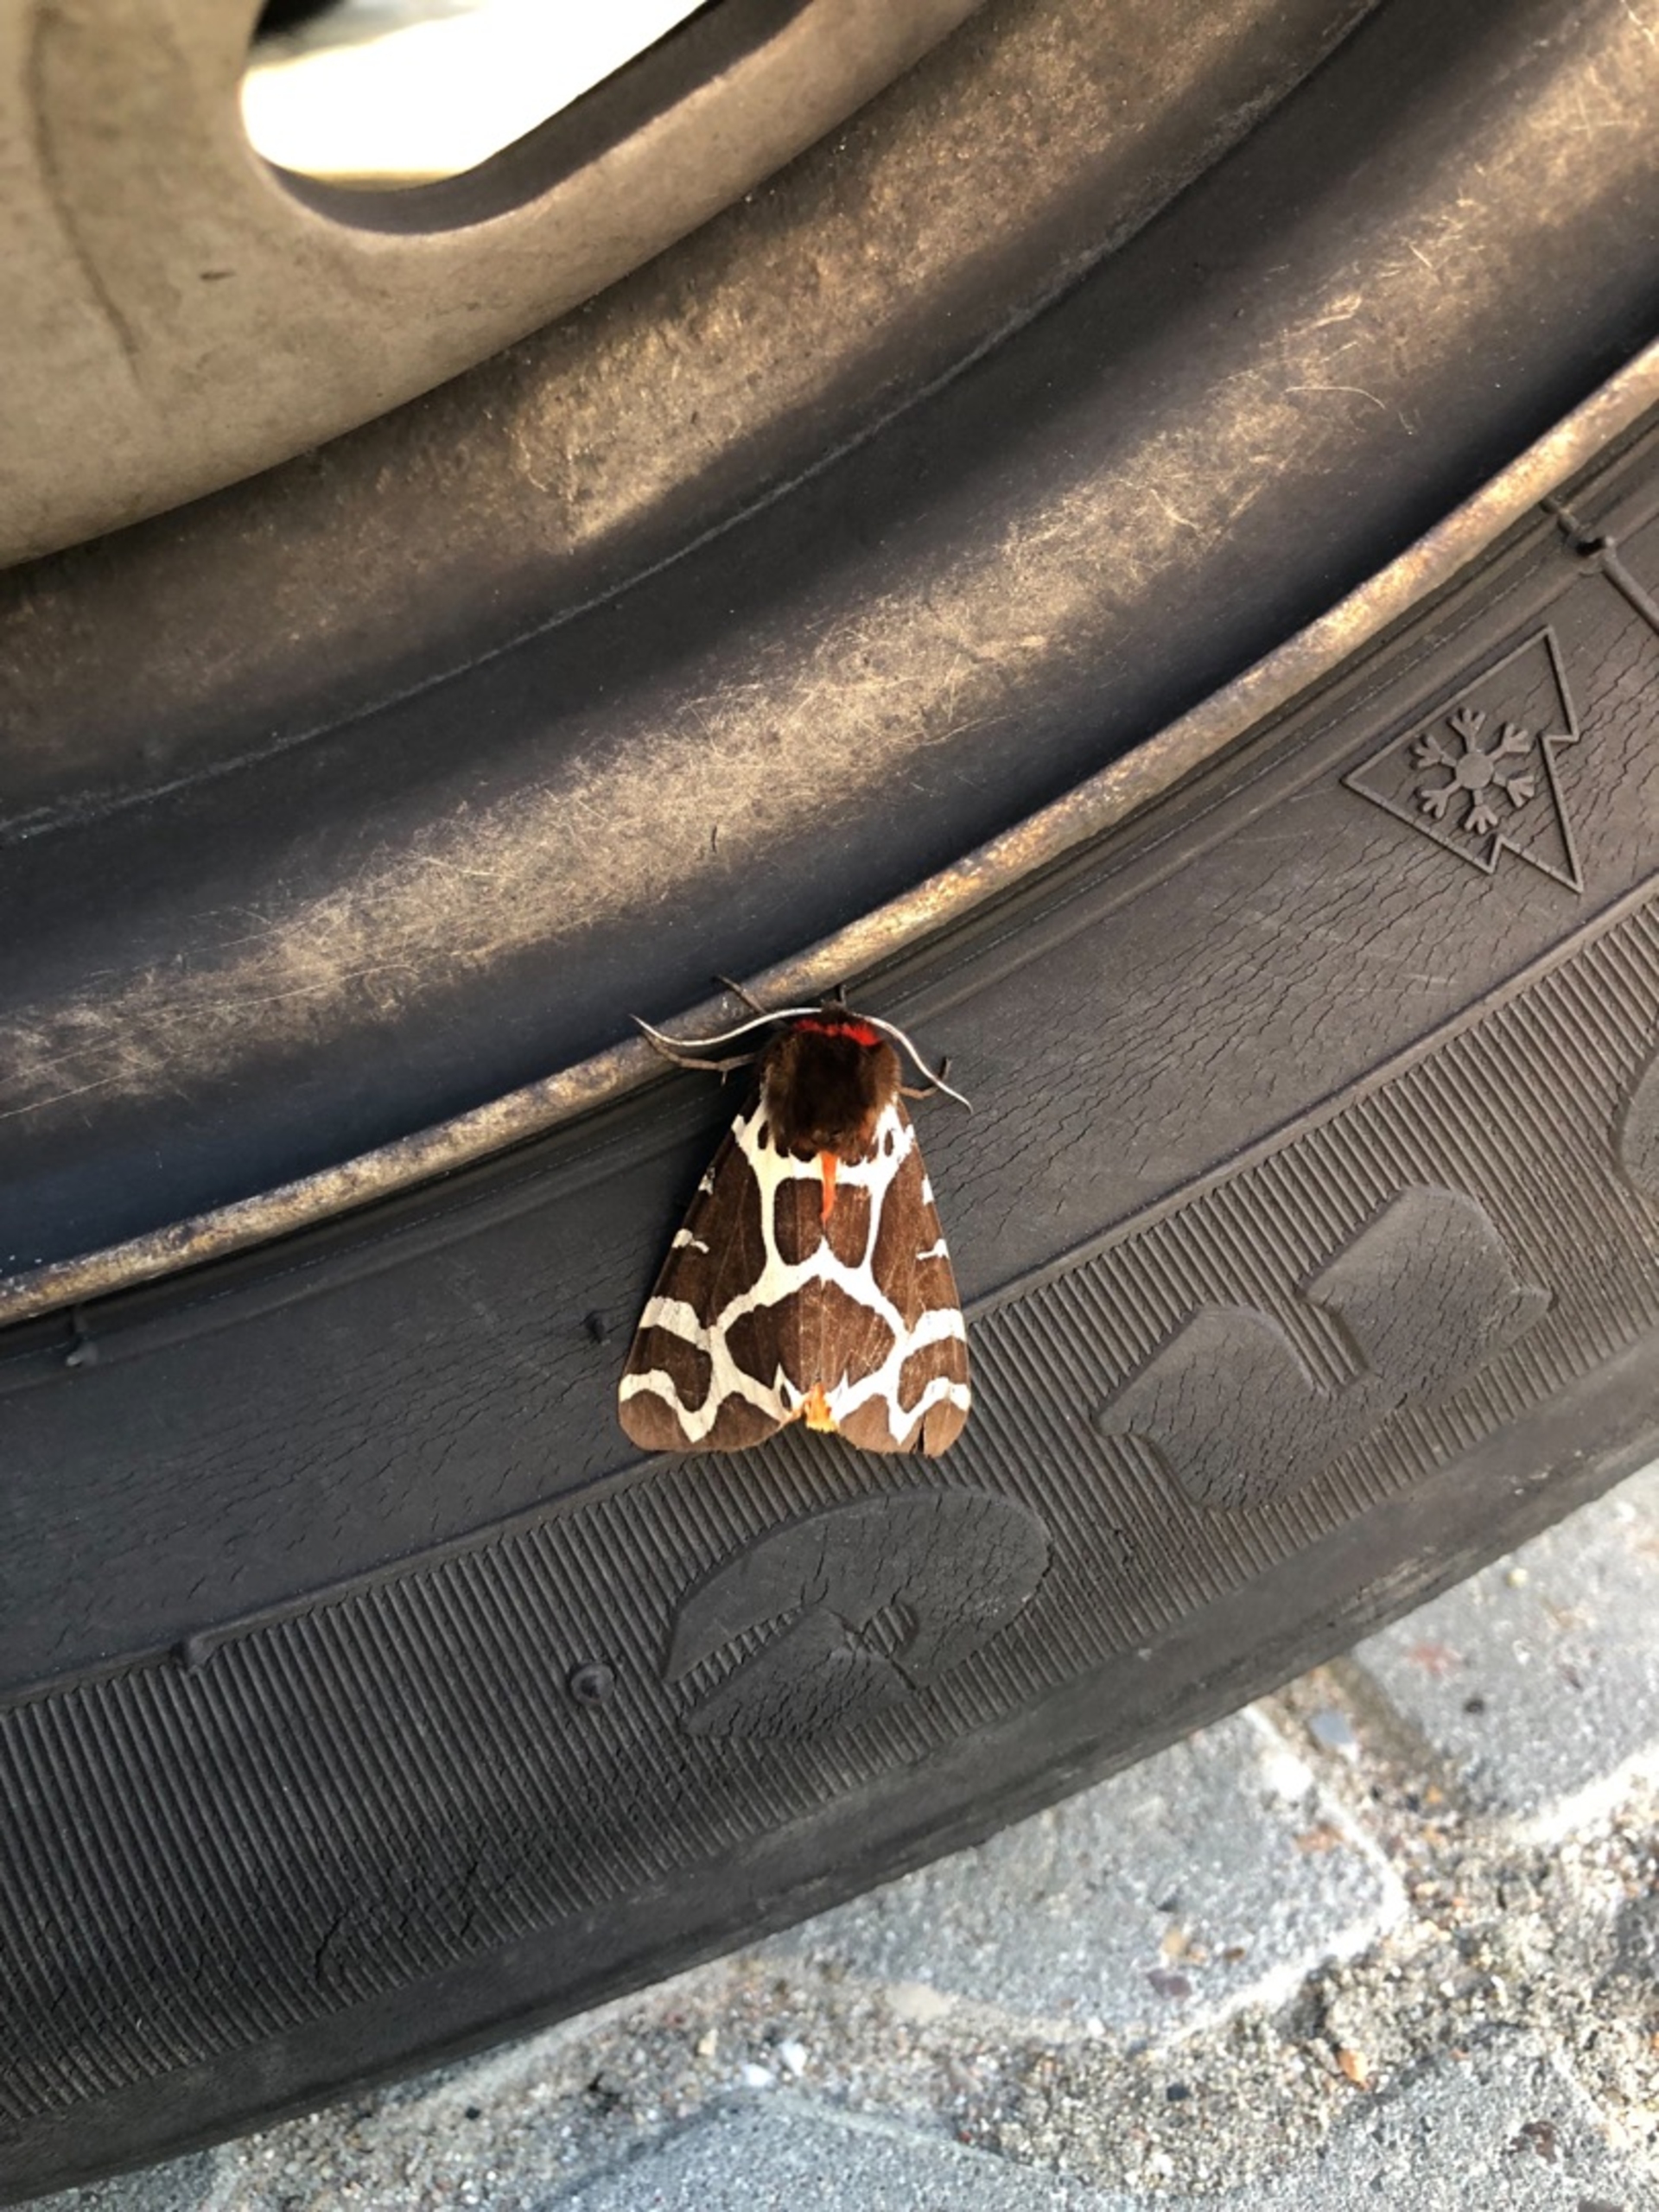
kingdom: Animalia
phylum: Arthropoda
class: Insecta
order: Lepidoptera
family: Erebidae
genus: Arctia
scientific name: Arctia caja
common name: Brun bjørn
